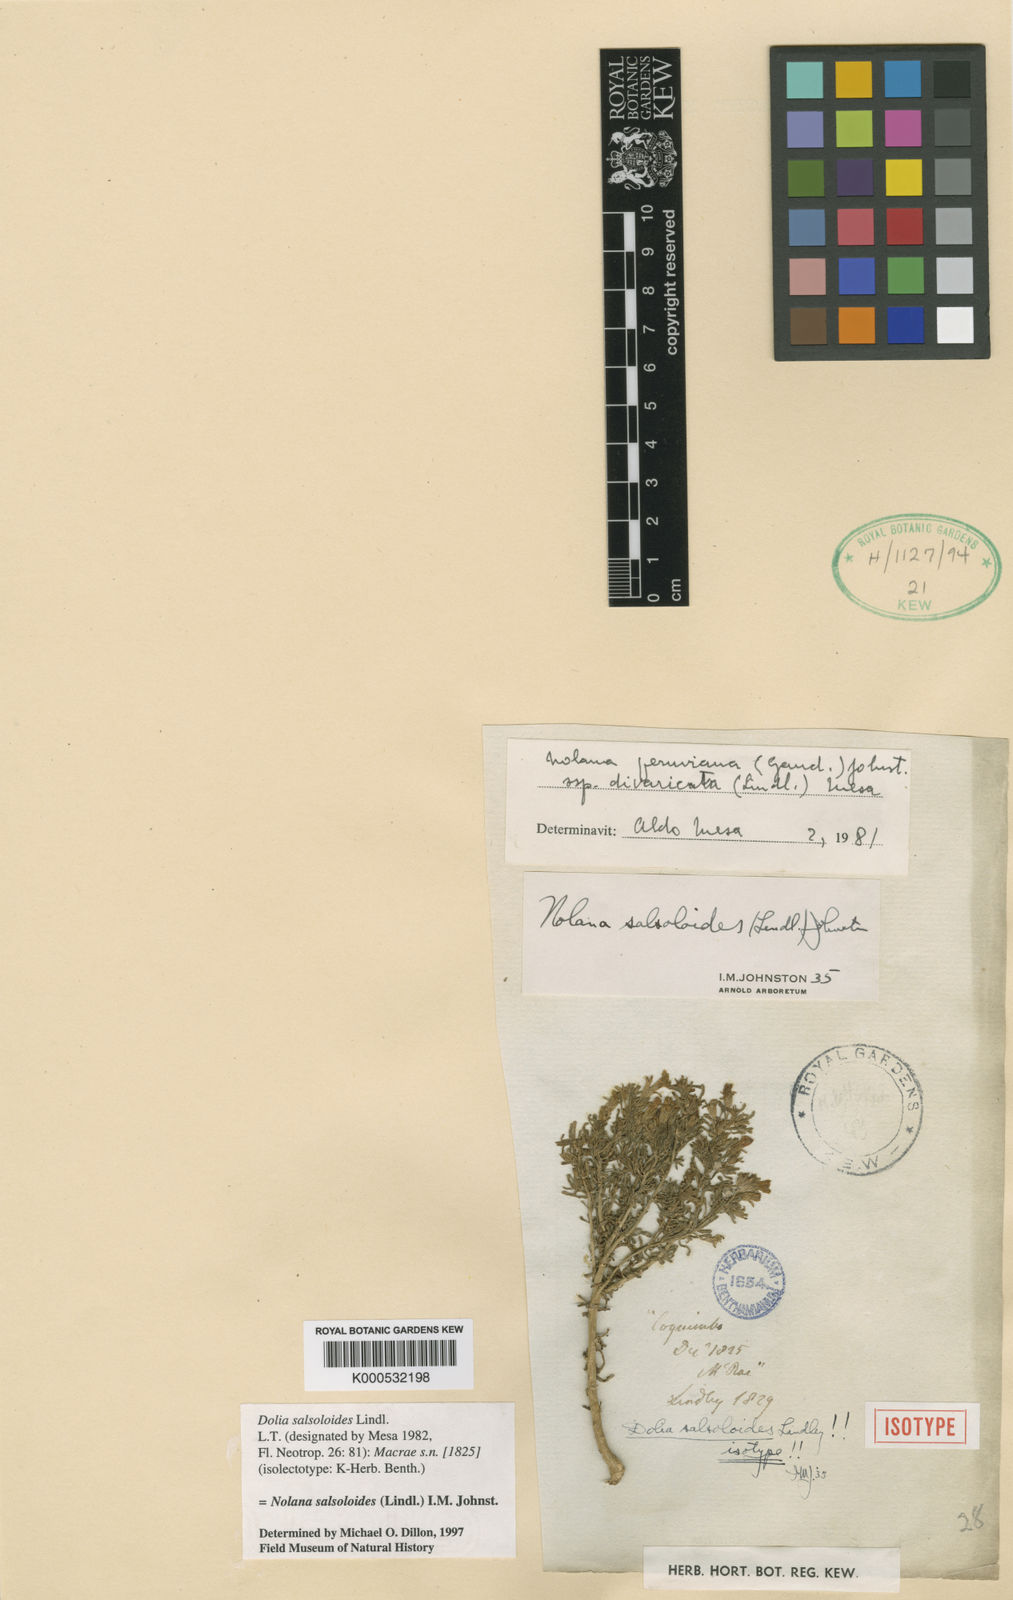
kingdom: Plantae
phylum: Tracheophyta
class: Magnoliopsida
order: Solanales
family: Solanaceae
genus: Nolana
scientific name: Nolana divaricata
